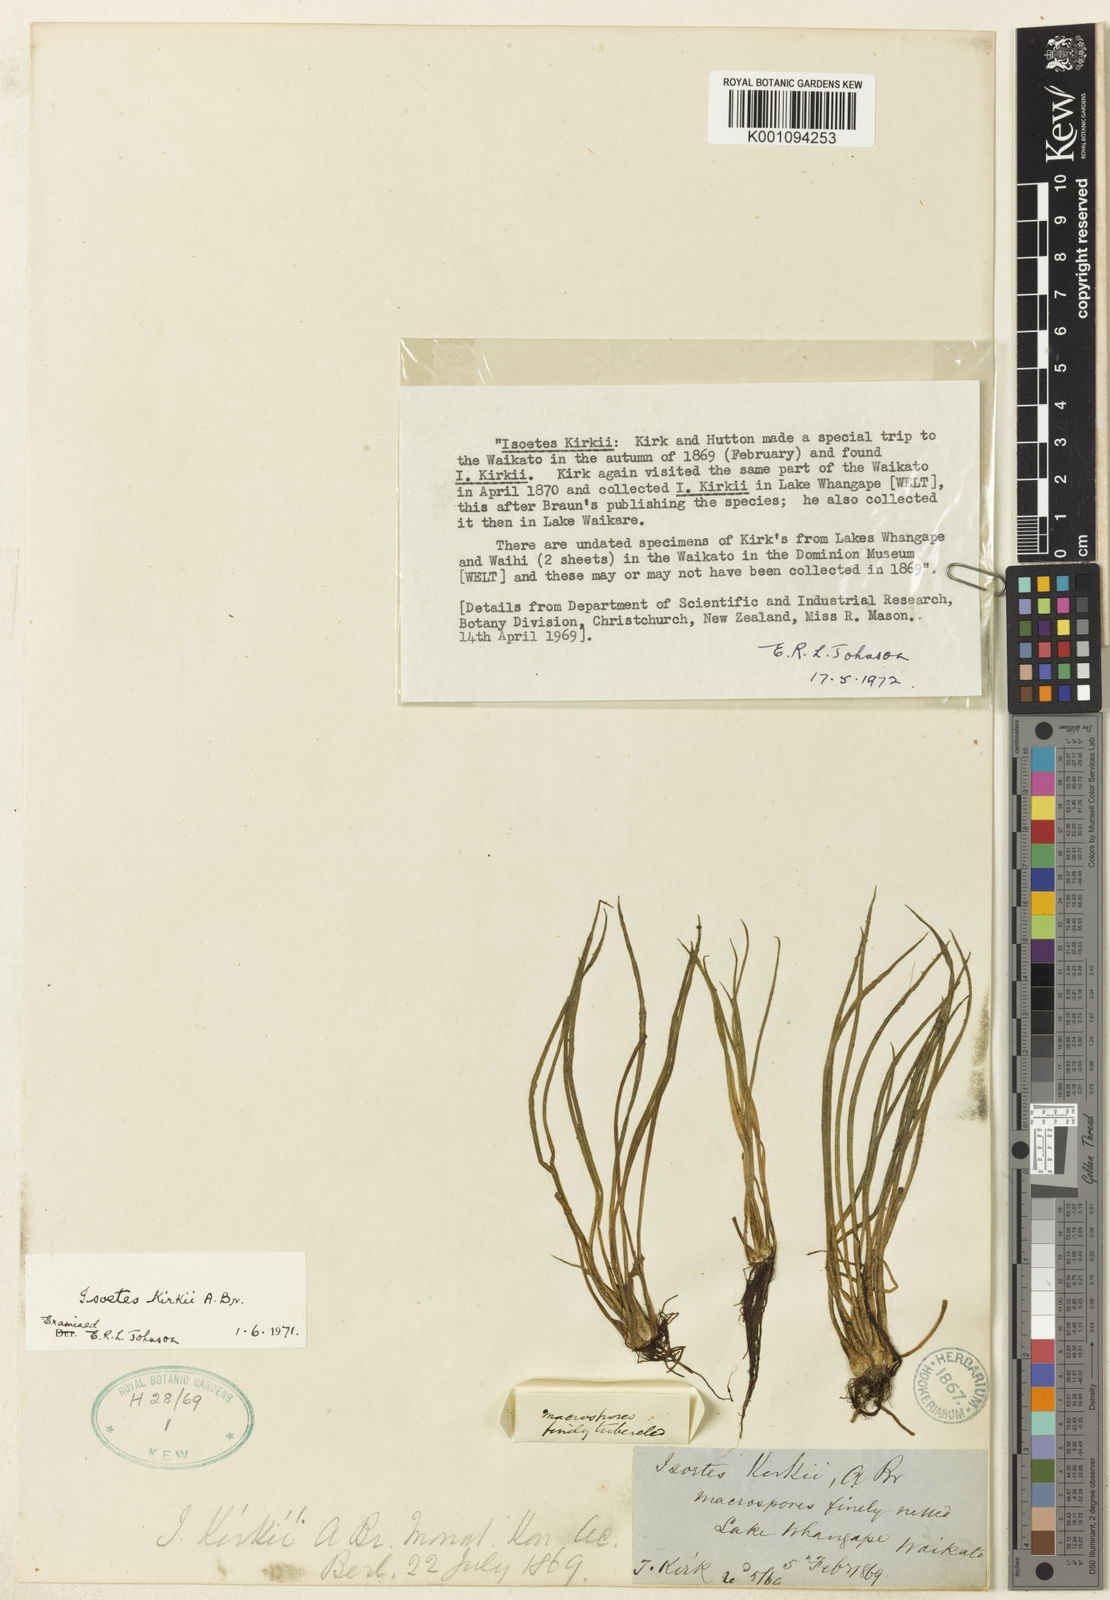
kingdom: Plantae
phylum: Tracheophyta
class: Lycopodiopsida
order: Isoetales
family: Isoetaceae
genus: Isoetes
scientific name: Isoetes kirkii
